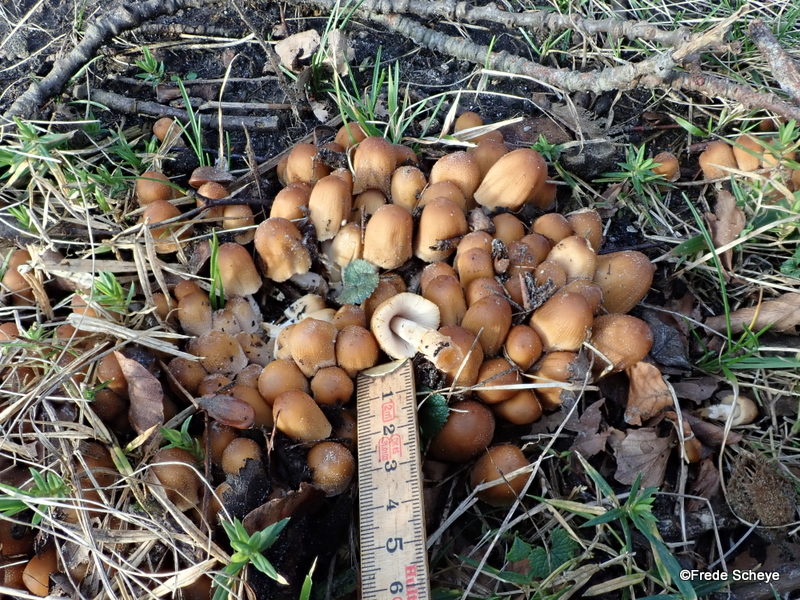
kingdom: Fungi
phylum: Basidiomycota
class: Agaricomycetes
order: Agaricales
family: Psathyrellaceae
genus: Coprinellus
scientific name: Coprinellus micaceus
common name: glimmer-blækhat
